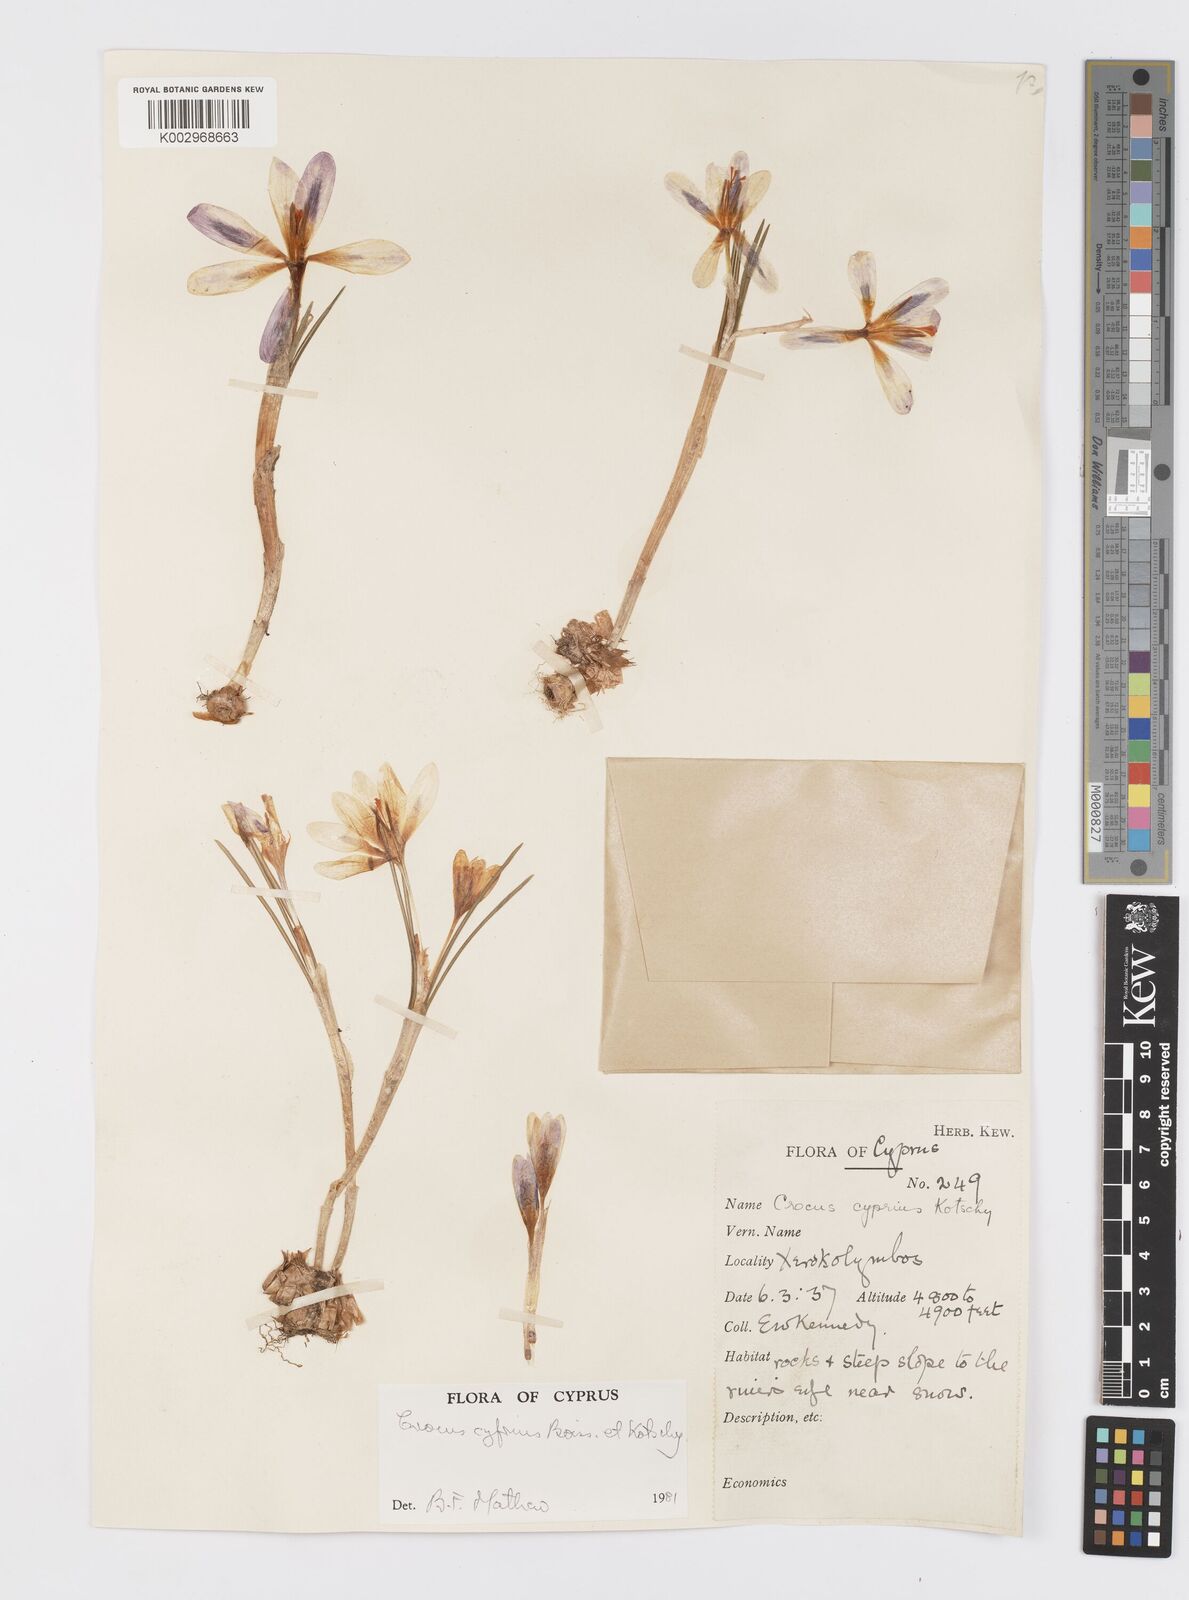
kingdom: Plantae
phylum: Tracheophyta
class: Liliopsida
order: Asparagales
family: Iridaceae
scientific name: Iridaceae
